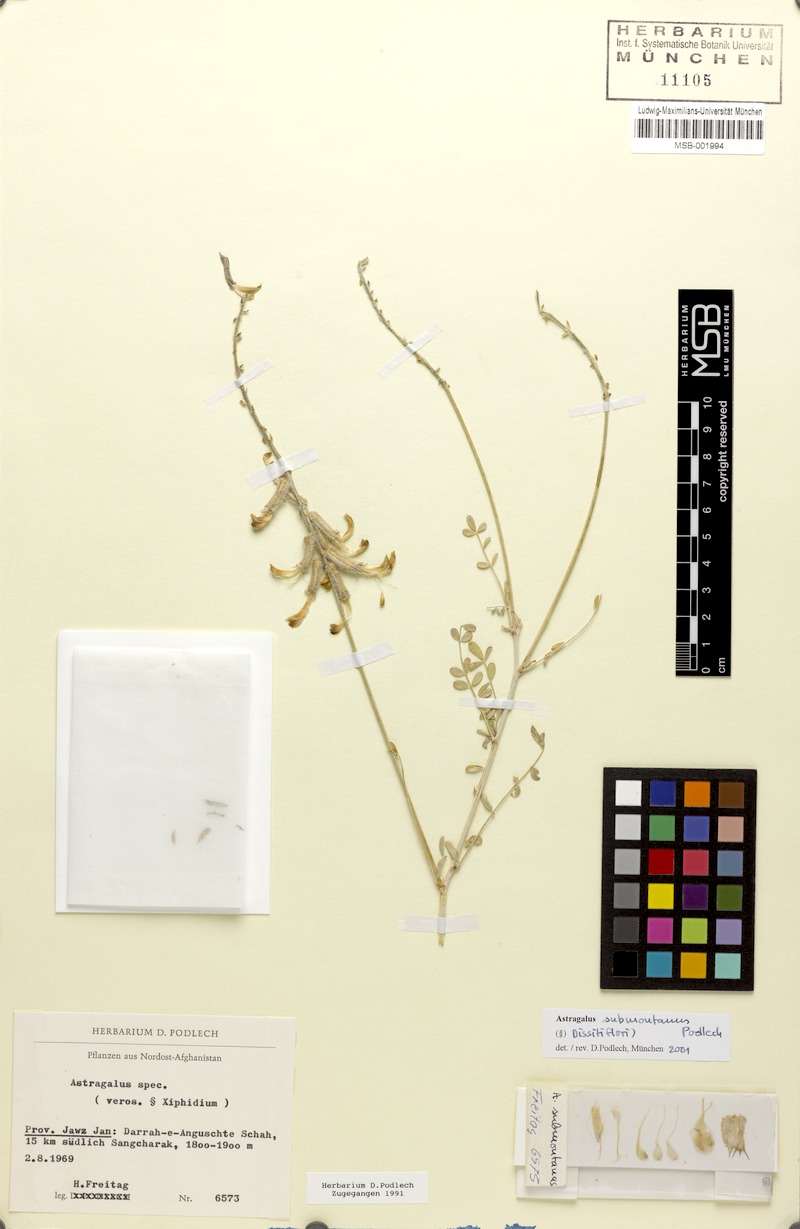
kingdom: Plantae
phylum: Tracheophyta
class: Magnoliopsida
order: Fabales
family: Fabaceae
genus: Astragalus
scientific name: Astragalus submontanus
